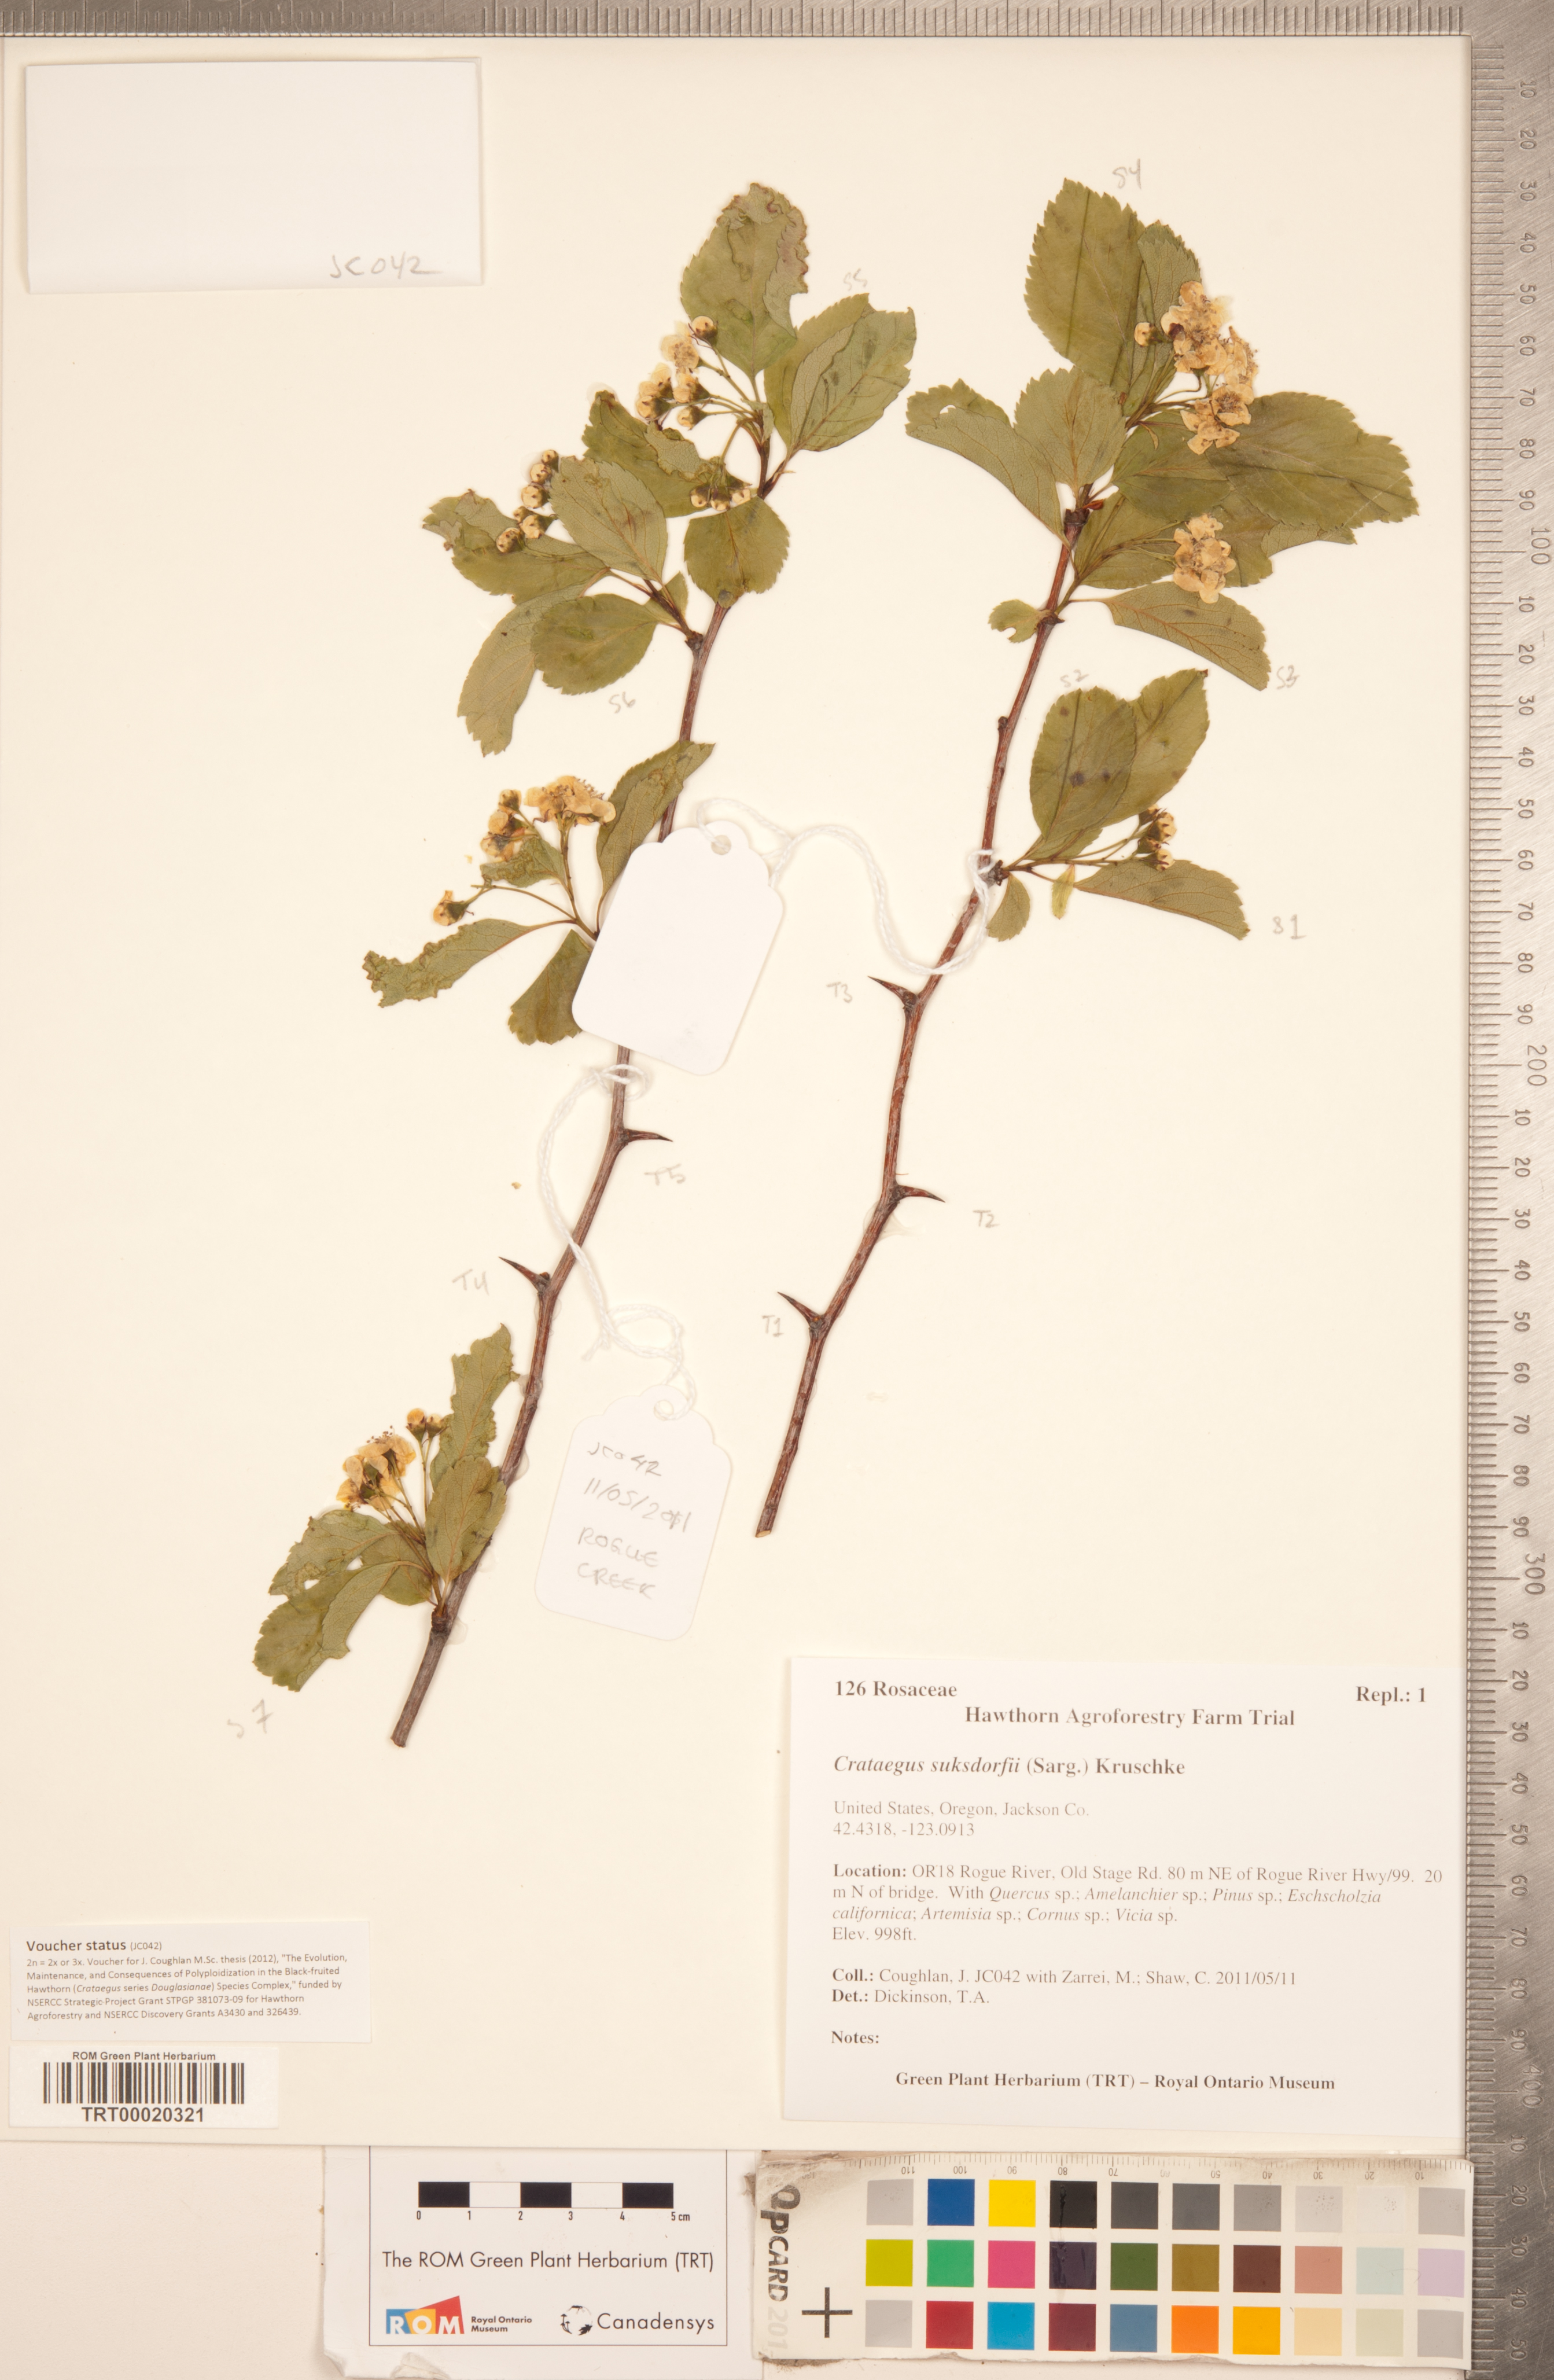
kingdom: Plantae
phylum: Tracheophyta
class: Magnoliopsida
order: Rosales
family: Rosaceae
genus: Crataegus
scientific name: Crataegus gaylussacia
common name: Huckleberry hawthorn
